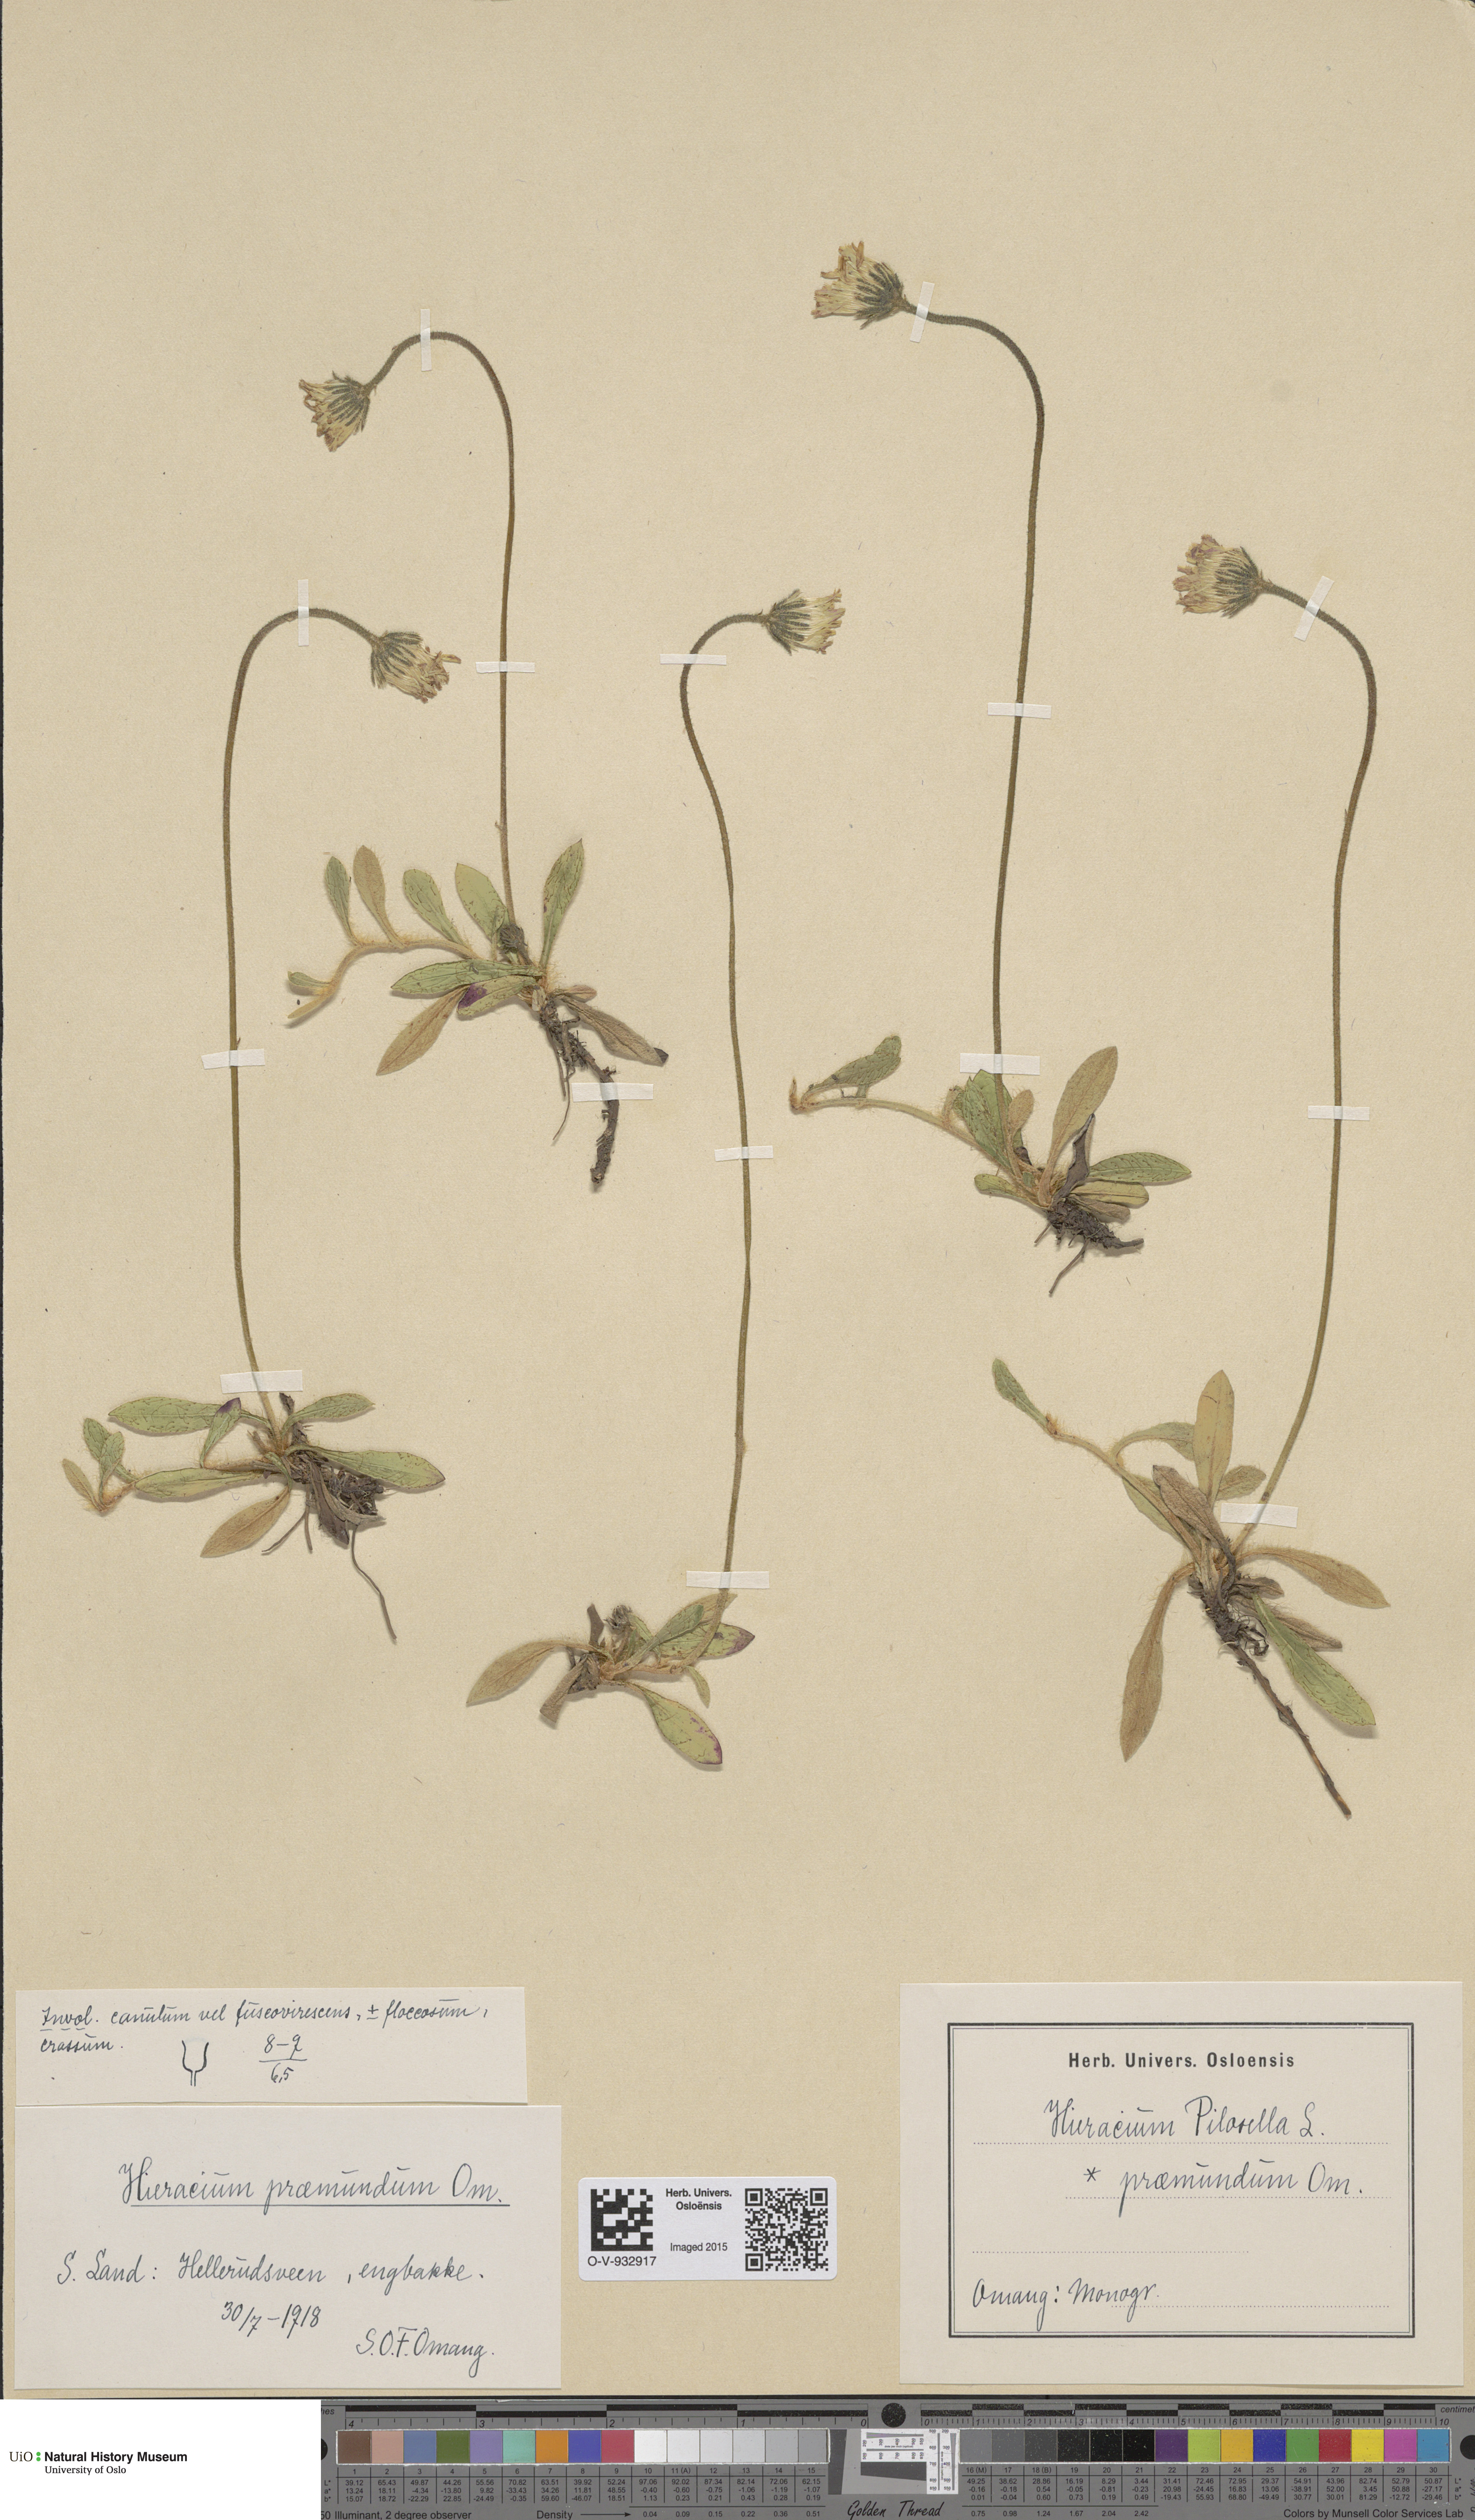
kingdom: Plantae
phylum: Tracheophyta
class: Magnoliopsida
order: Asterales
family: Asteraceae
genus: Pilosella
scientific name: Pilosella officinarum
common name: Mouse-ear hawkweed
